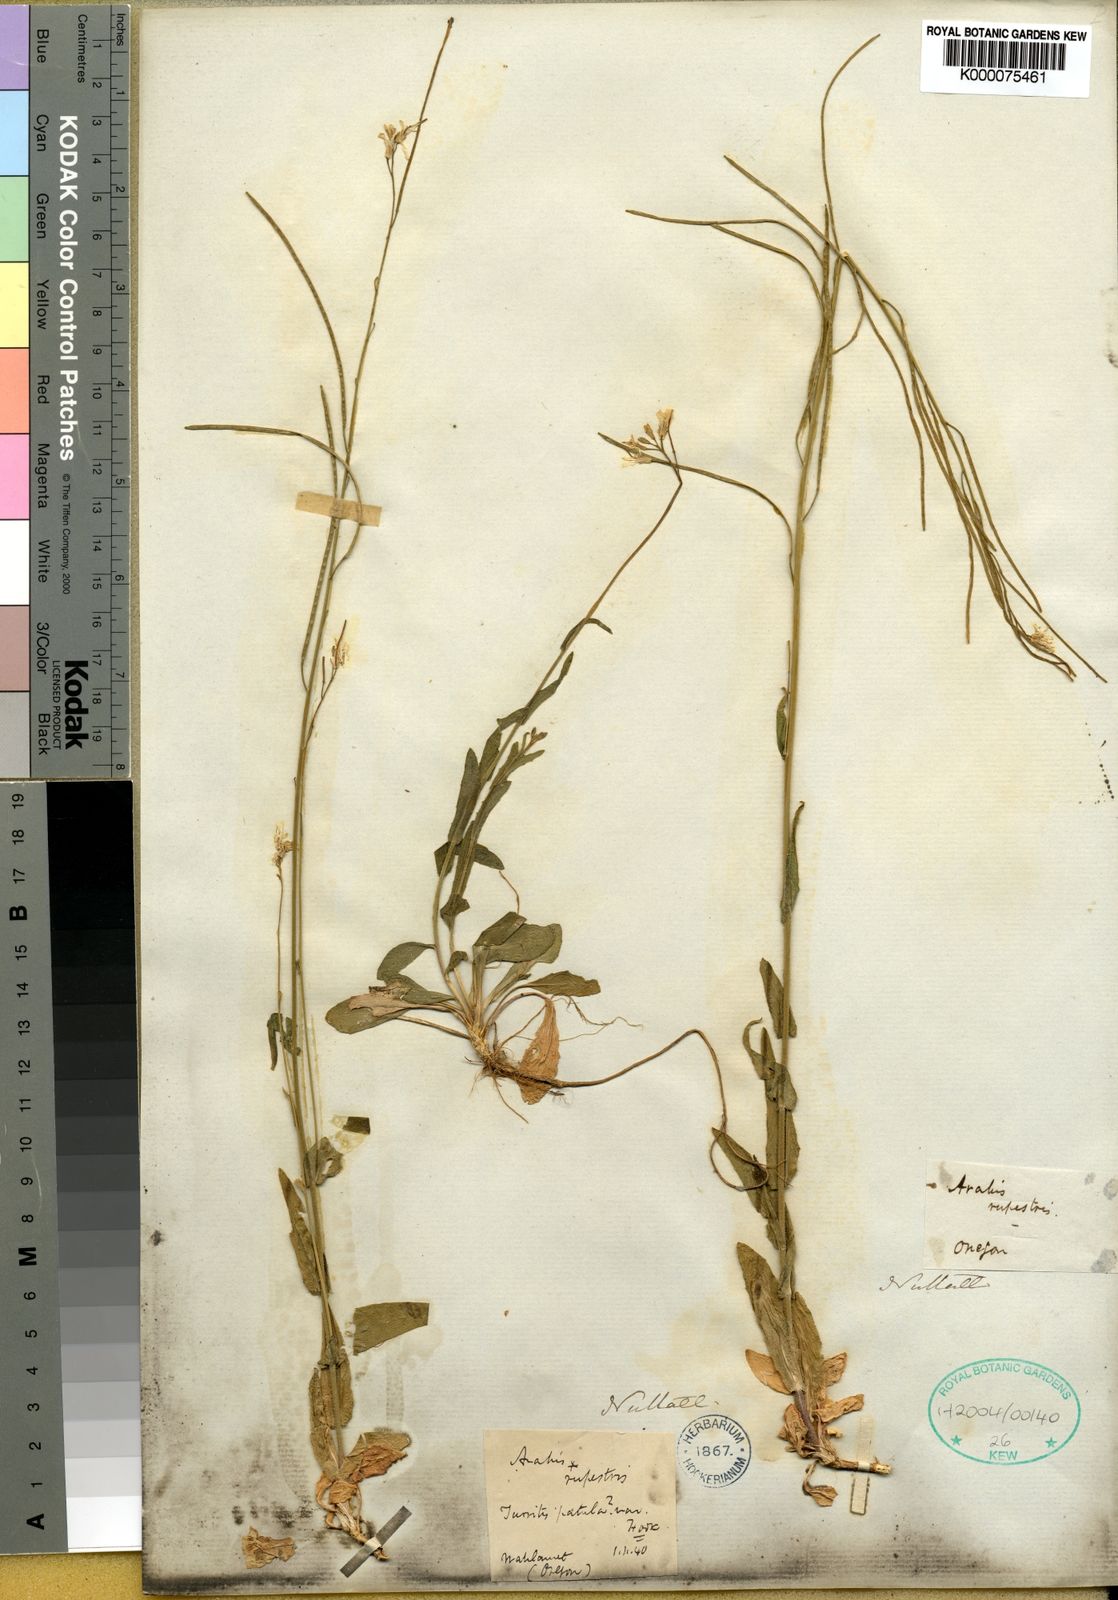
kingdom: Plantae
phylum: Tracheophyta
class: Magnoliopsida
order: Brassicales
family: Brassicaceae
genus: Arabis
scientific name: Arabis
